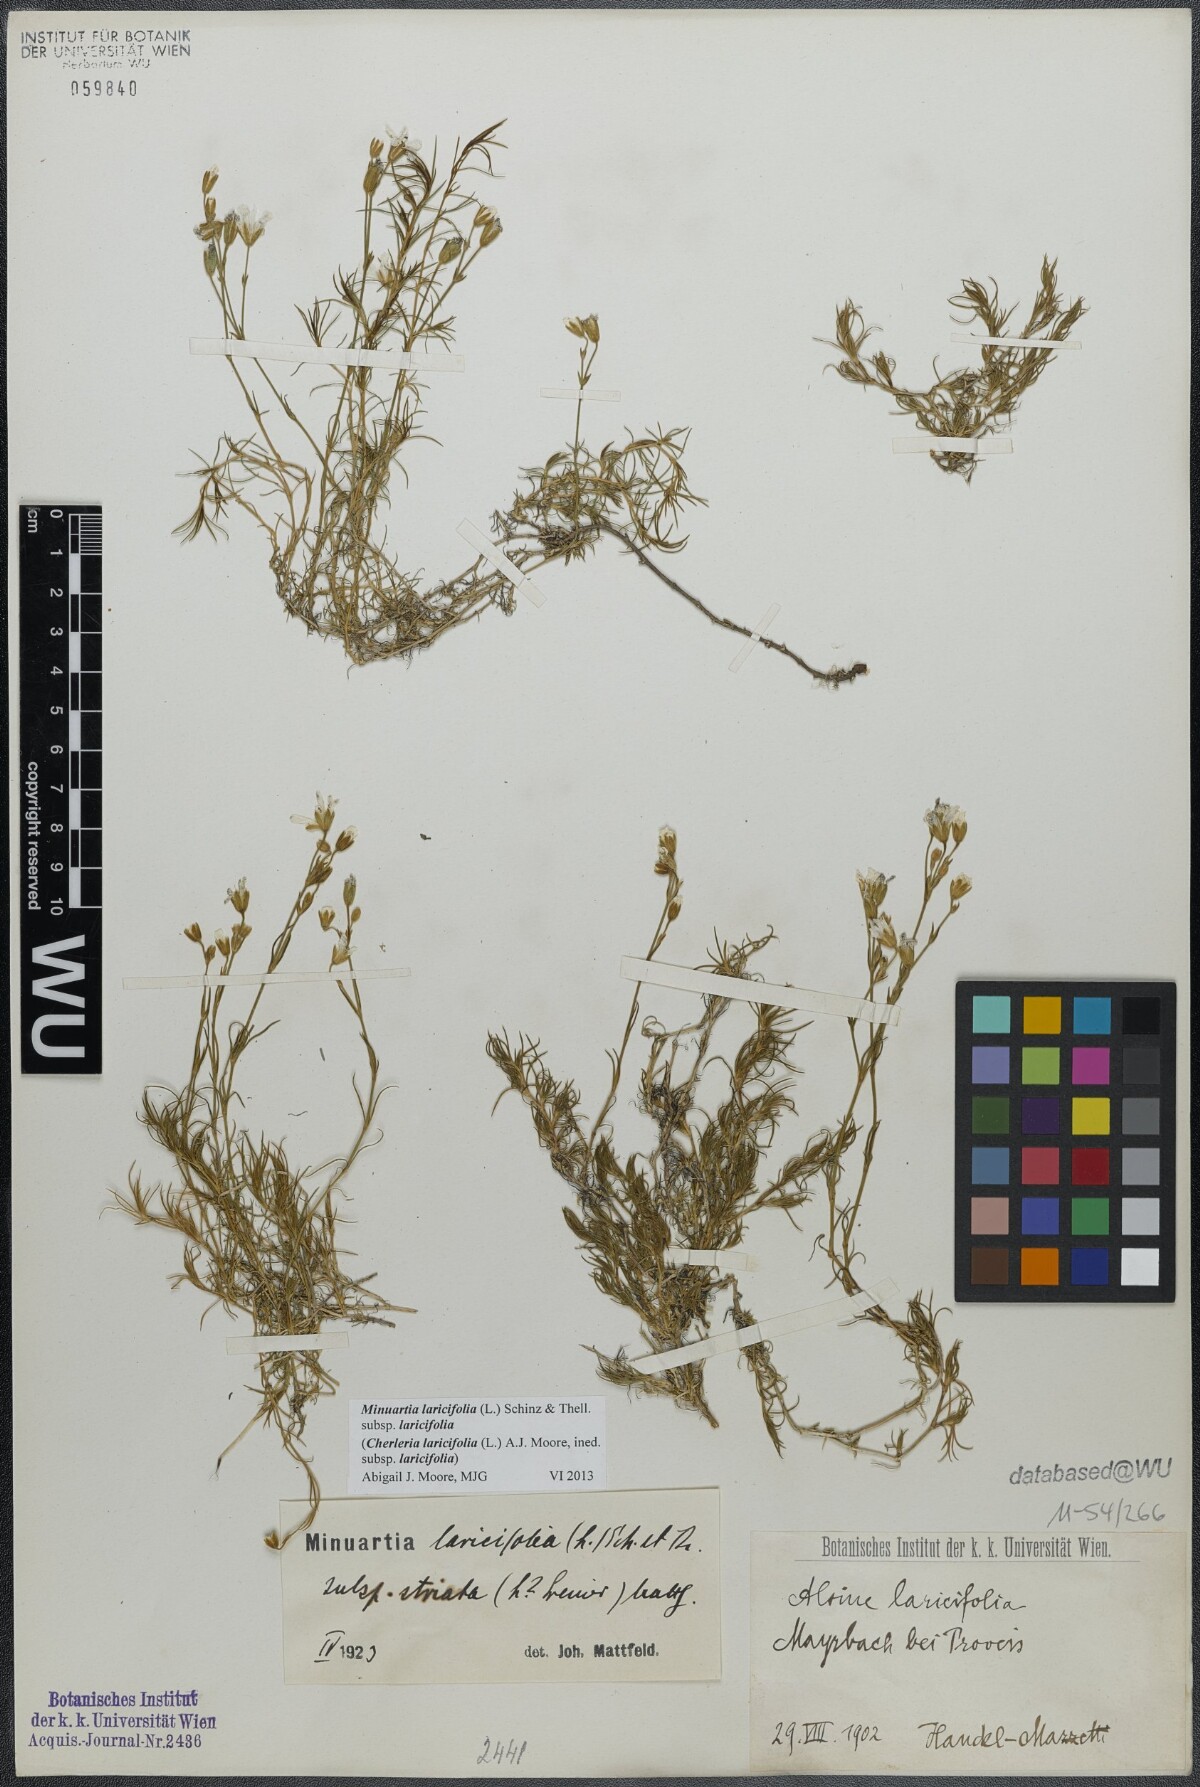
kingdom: Plantae
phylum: Tracheophyta
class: Magnoliopsida
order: Caryophyllales
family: Caryophyllaceae
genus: Cherleria
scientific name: Cherleria laricifolia
